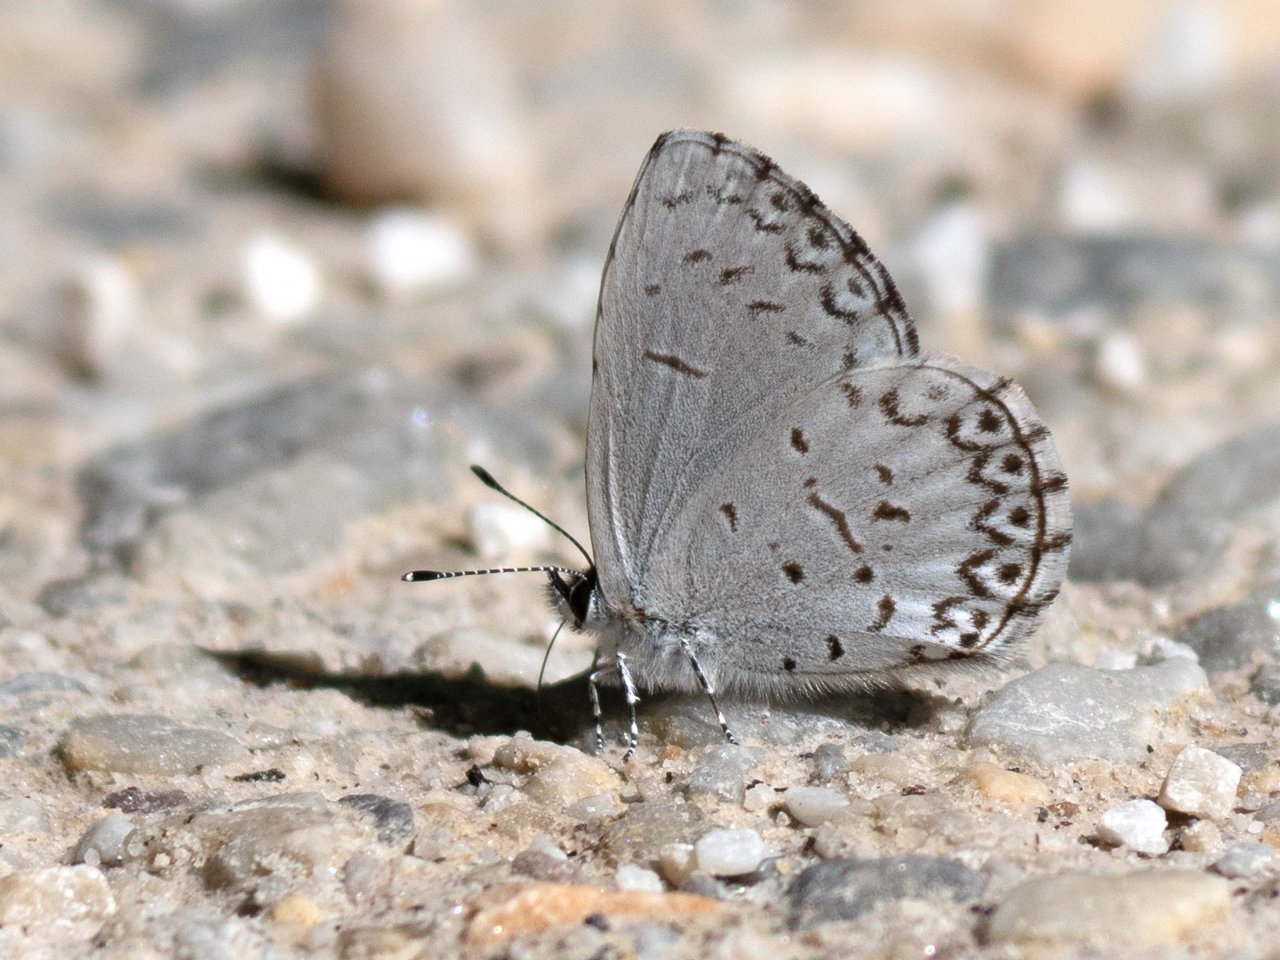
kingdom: Animalia
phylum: Arthropoda
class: Insecta
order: Lepidoptera
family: Lycaenidae
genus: Celastrina
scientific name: Celastrina
